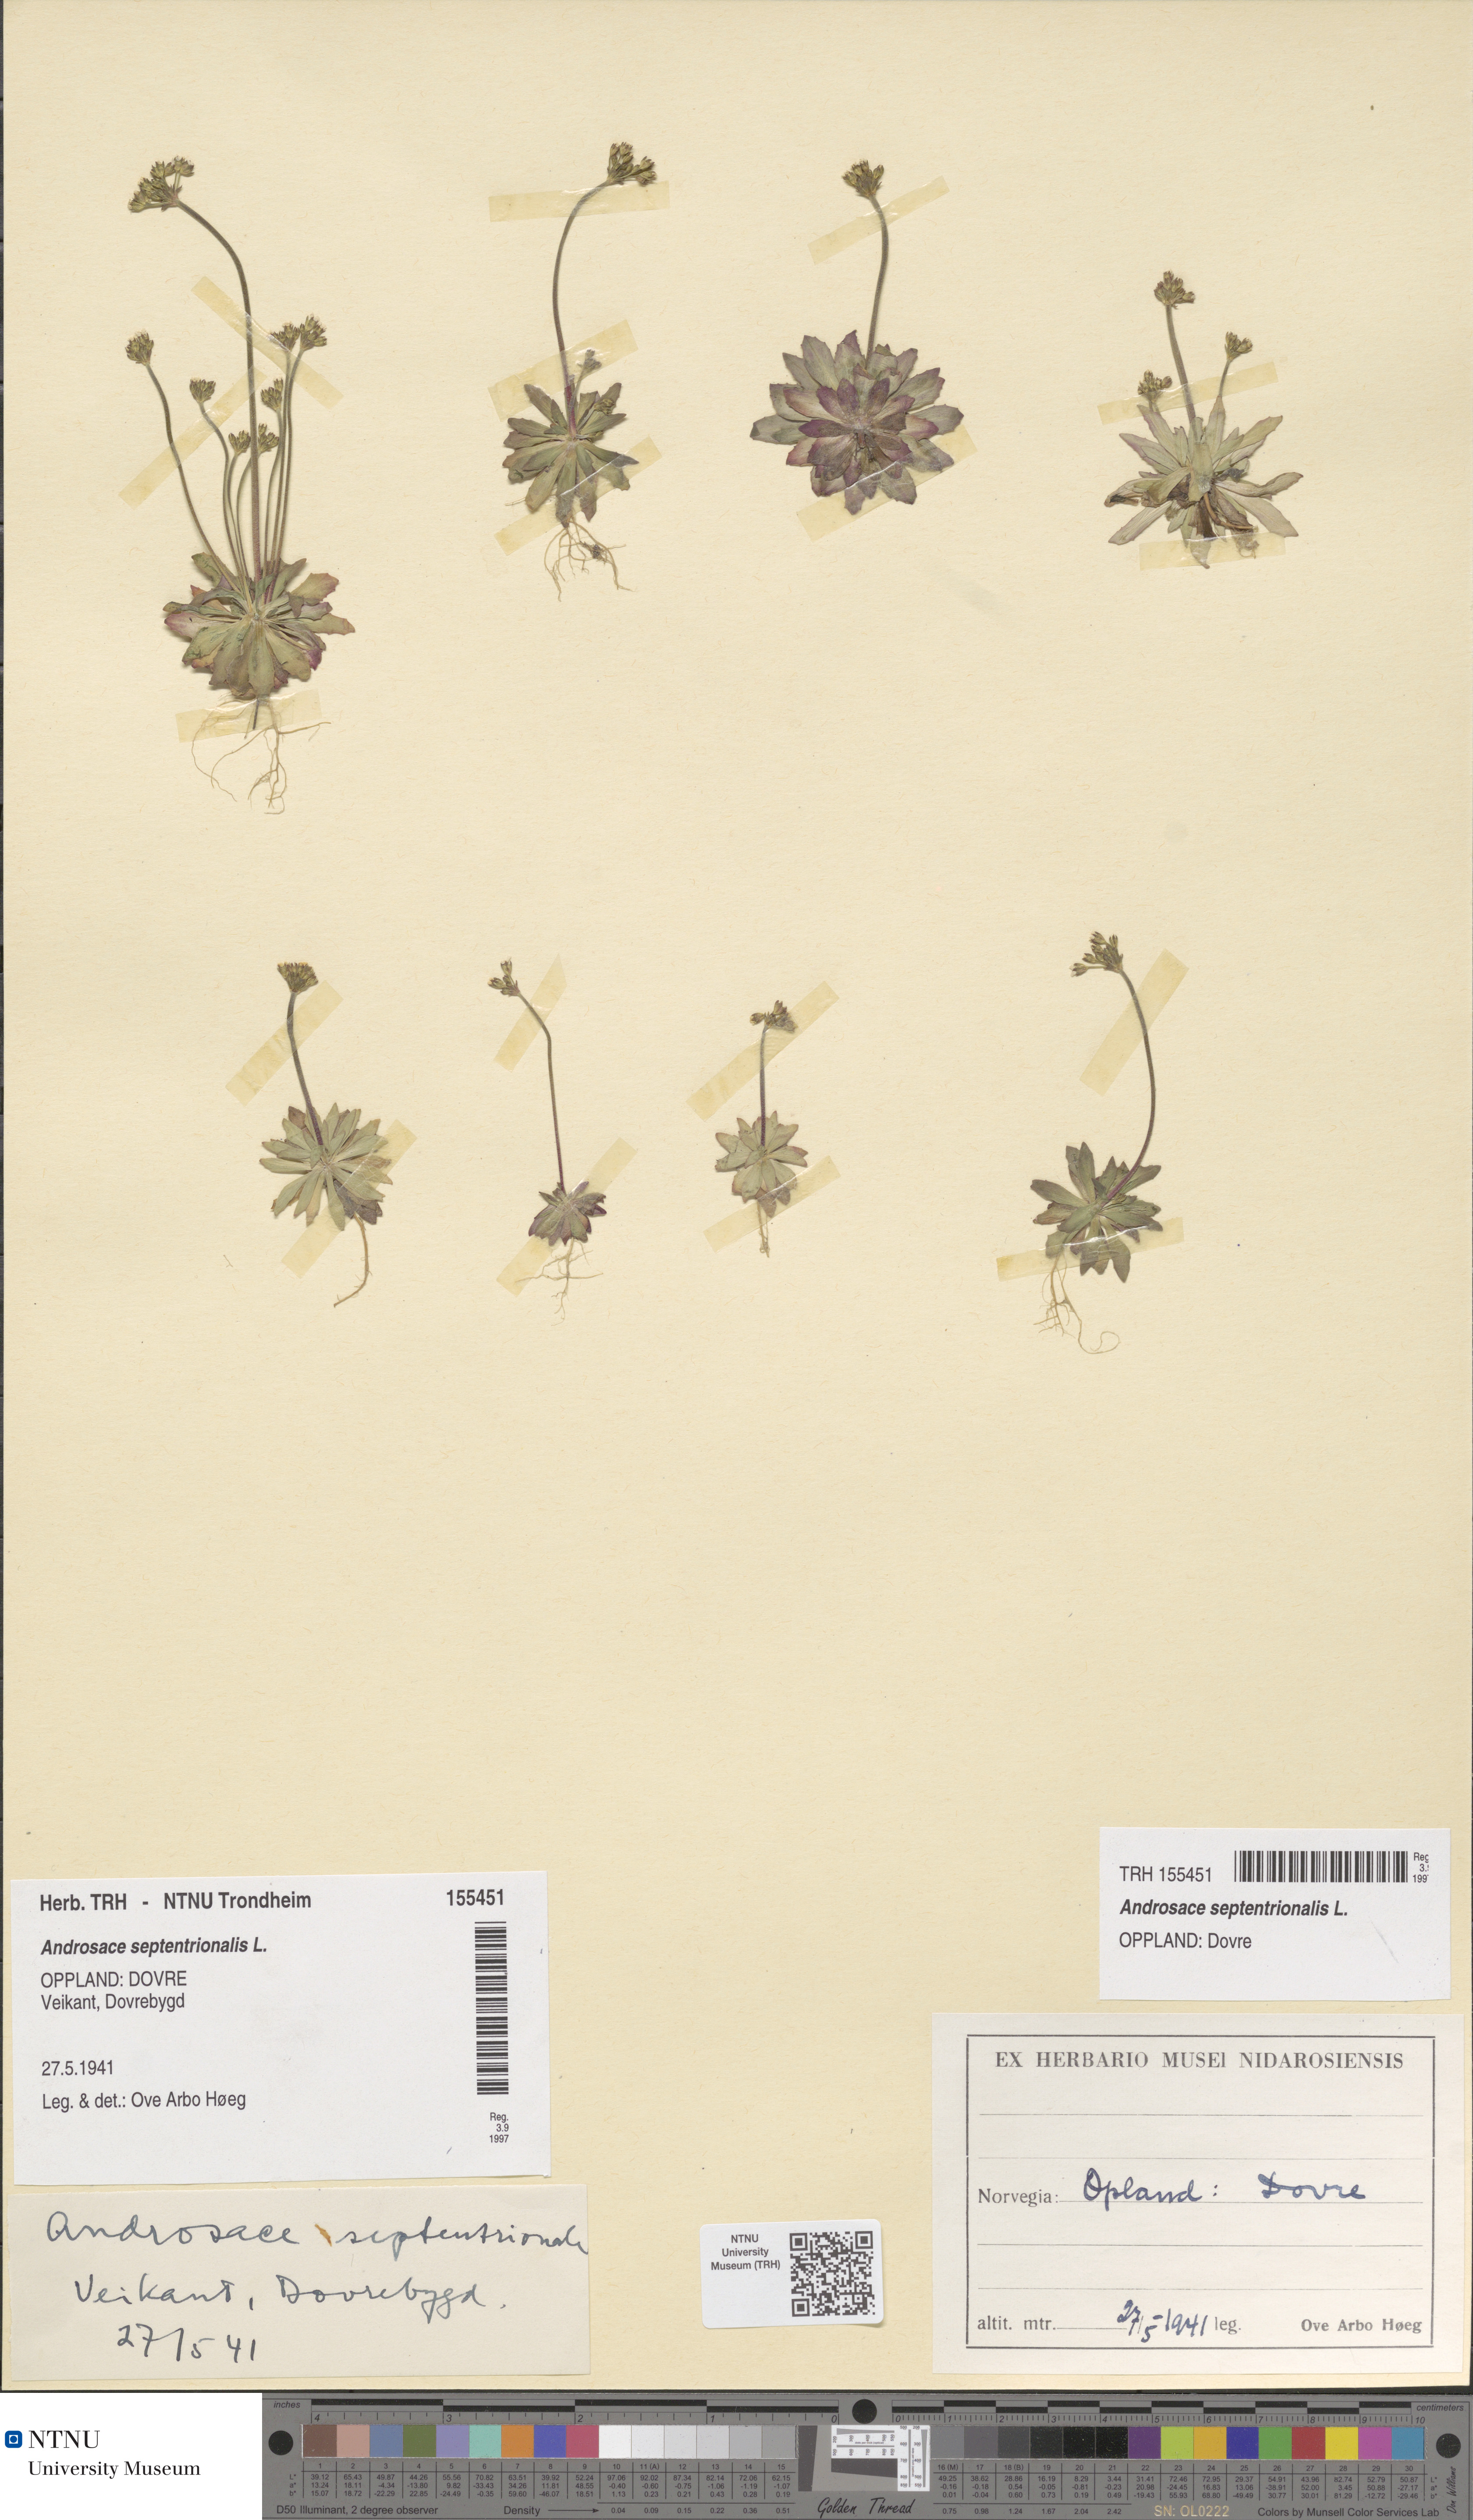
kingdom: Plantae
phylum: Tracheophyta
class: Magnoliopsida
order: Ericales
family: Primulaceae
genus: Androsace
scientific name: Androsace septentrionalis
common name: Hairy northern fairy-candelabra
